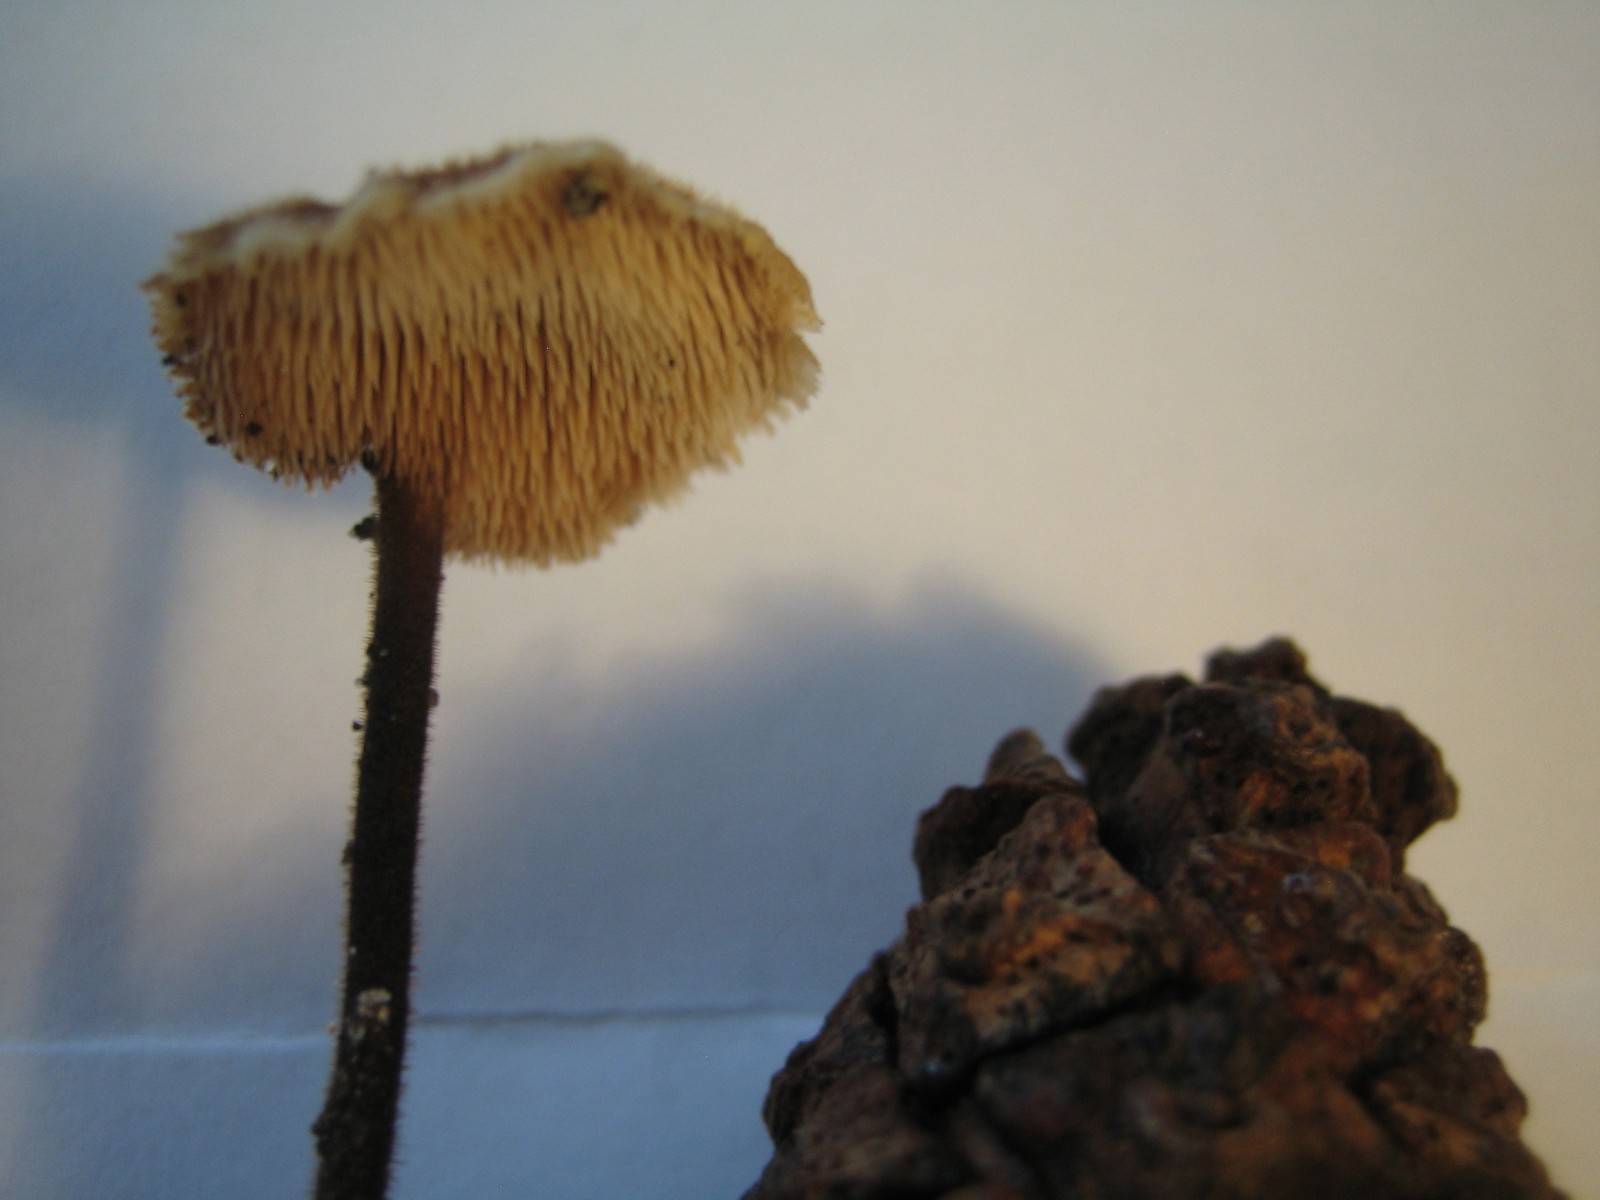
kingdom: Fungi
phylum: Basidiomycota
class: Agaricomycetes
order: Russulales
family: Auriscalpiaceae
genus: Auriscalpium
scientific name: Auriscalpium vulgare
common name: koglepigsvamp
